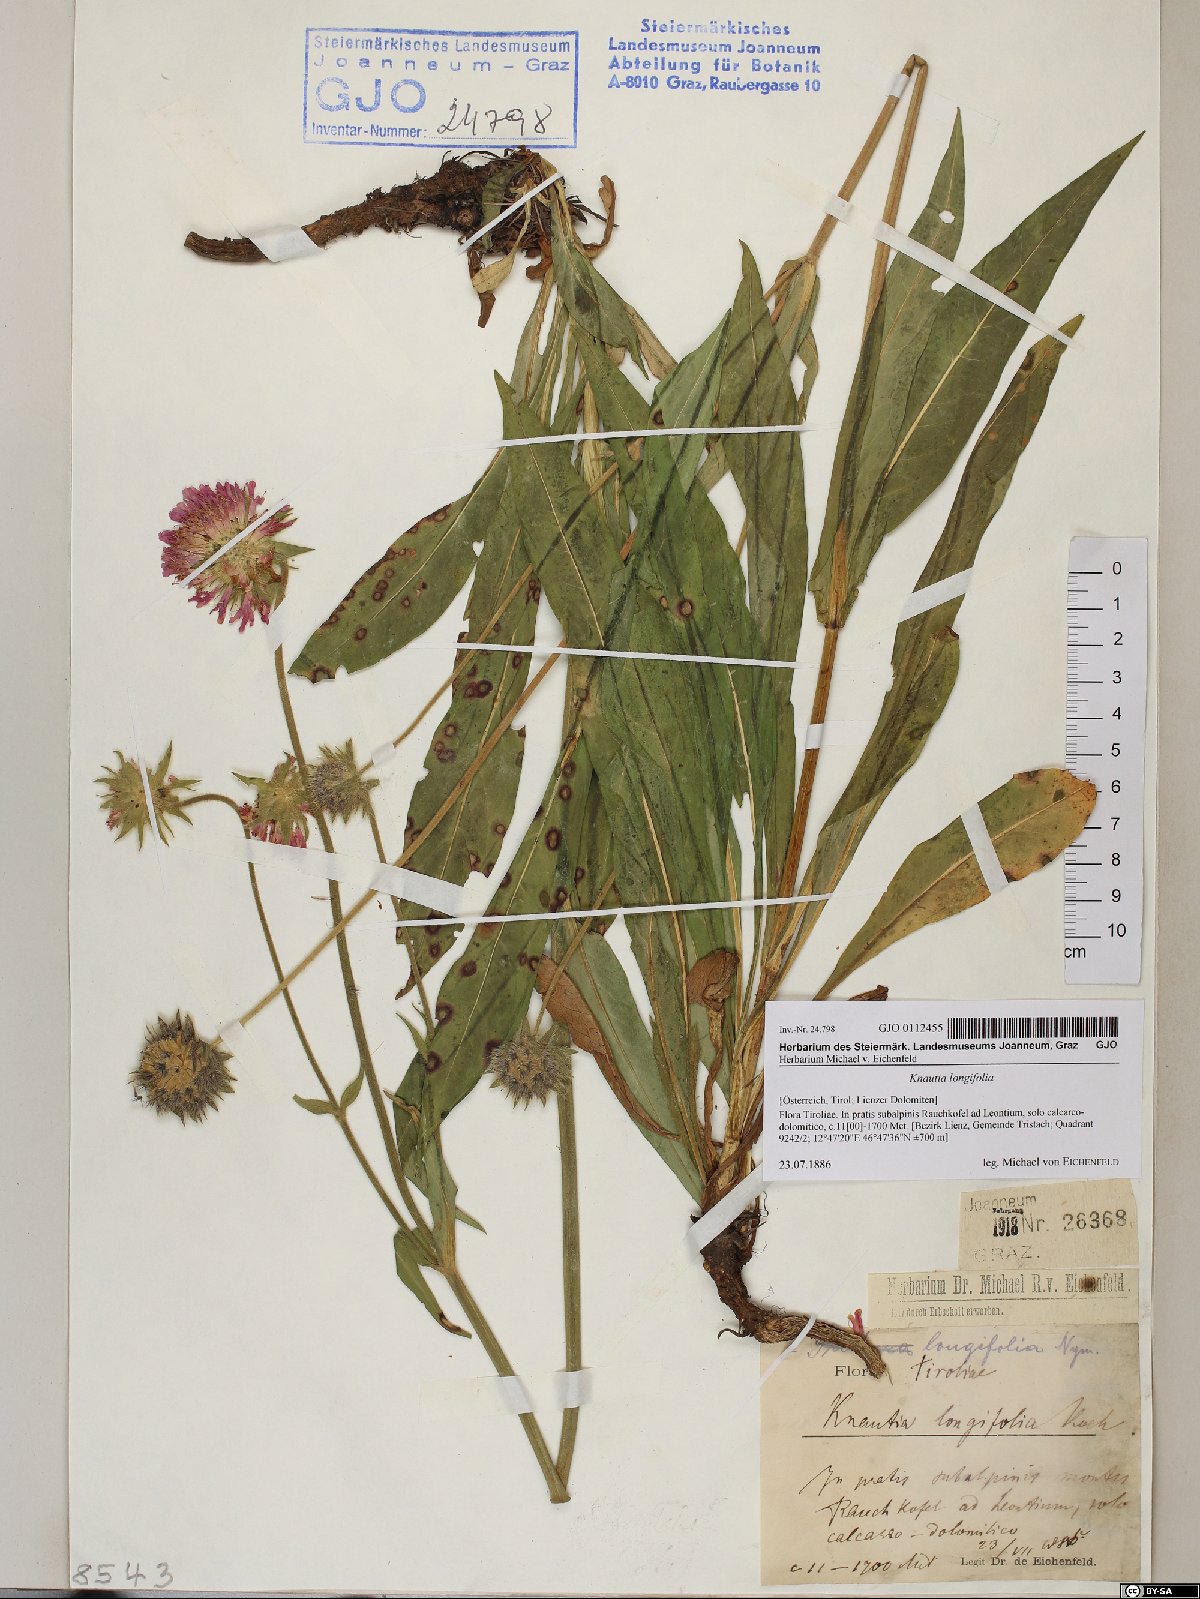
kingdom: Plantae
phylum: Tracheophyta
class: Magnoliopsida
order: Dipsacales
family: Caprifoliaceae
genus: Knautia
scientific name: Knautia longifolia
